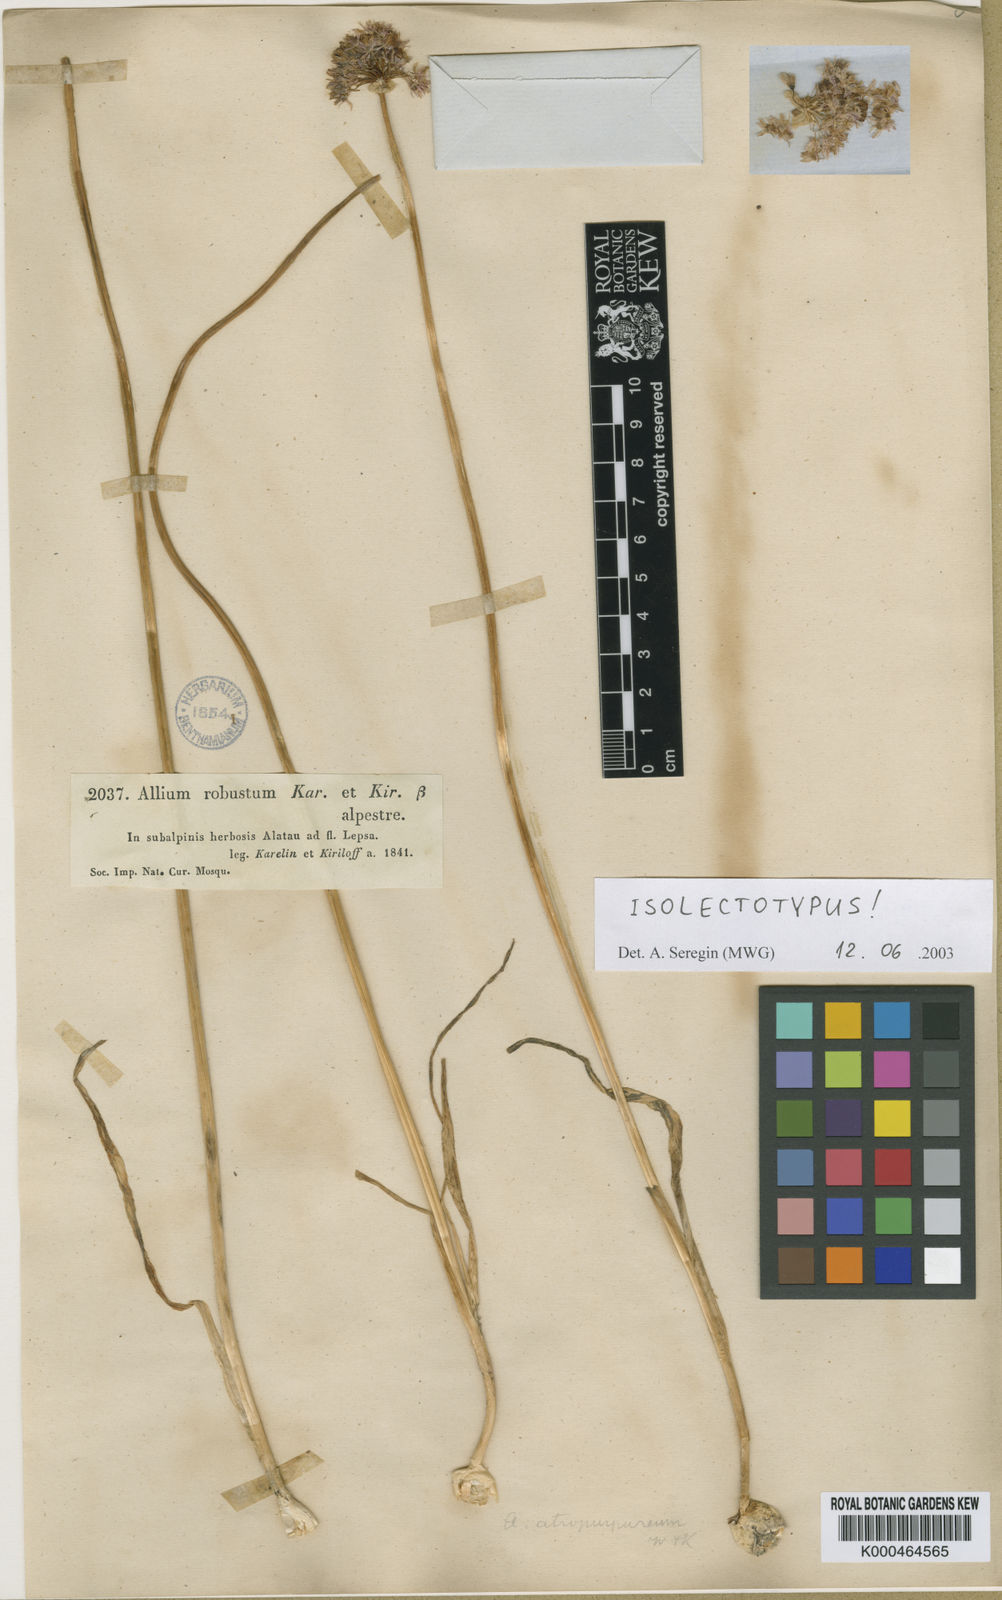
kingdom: Plantae
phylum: Tracheophyta
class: Liliopsida
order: Asparagales
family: Amaryllidaceae
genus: Allium
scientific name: Allium robustum
